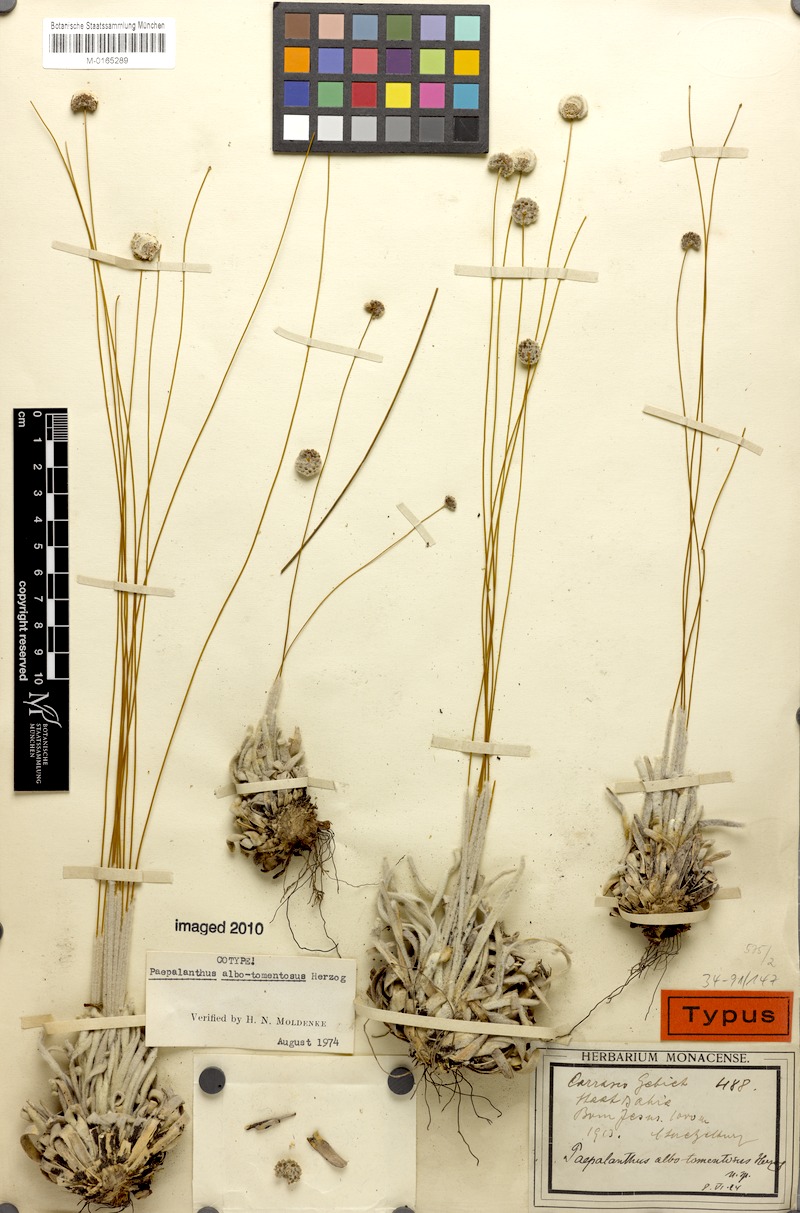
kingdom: Plantae
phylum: Tracheophyta
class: Liliopsida
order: Poales
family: Eriocaulaceae
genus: Paepalanthus
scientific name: Paepalanthus albotomentosus
